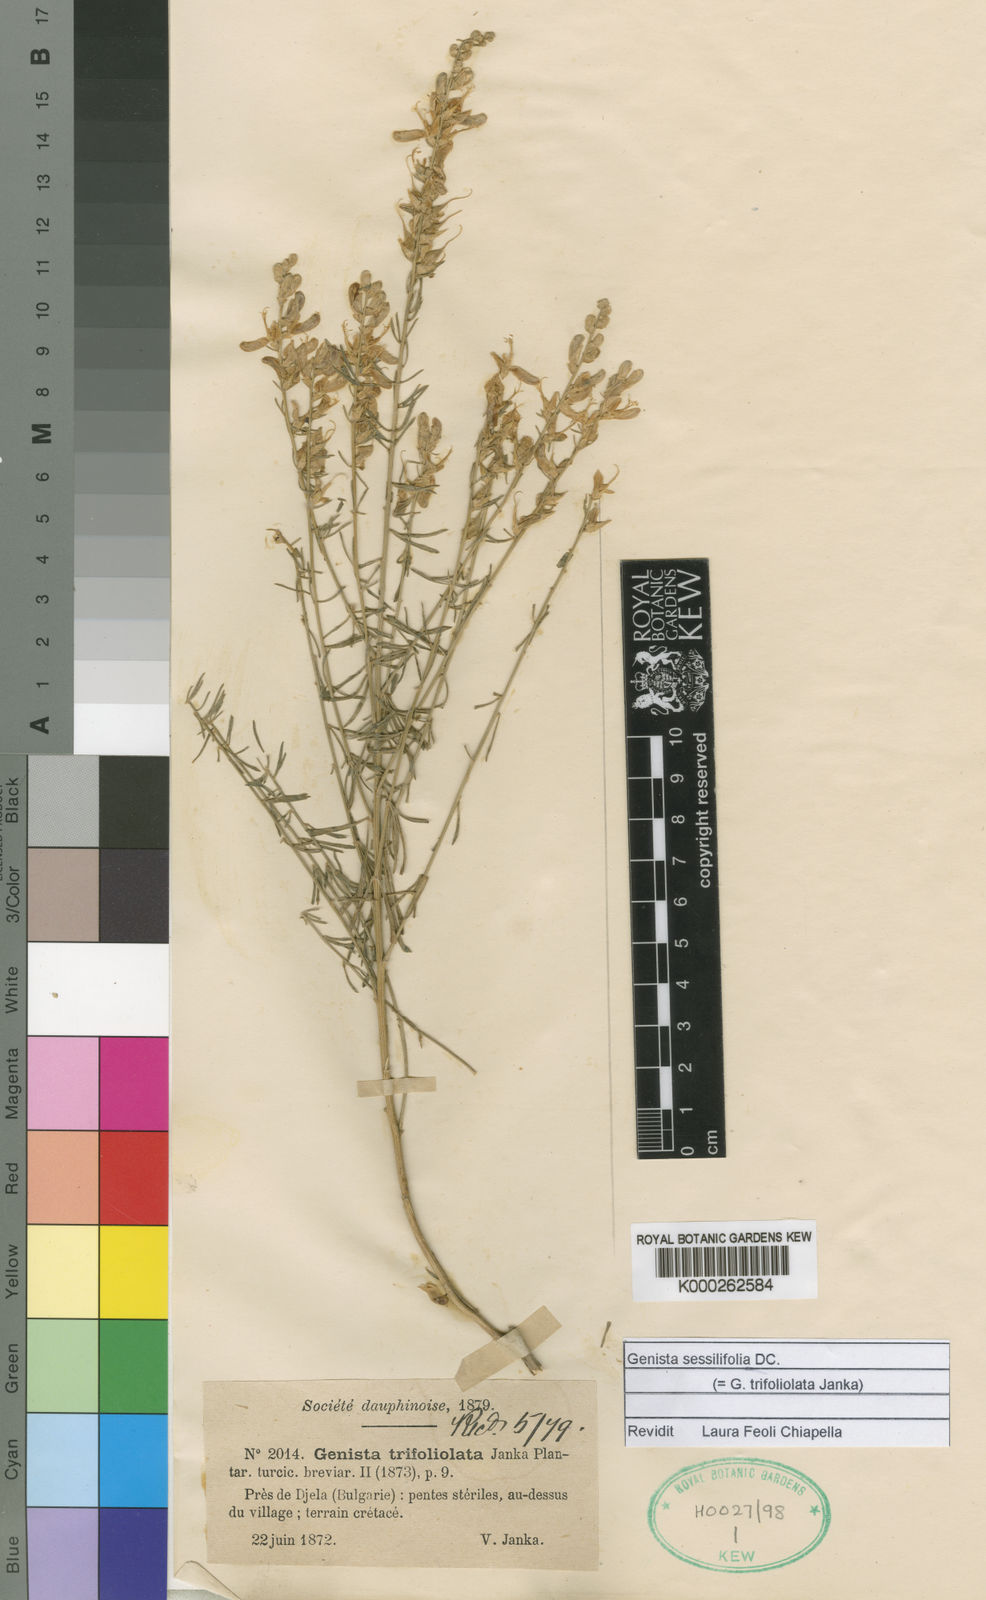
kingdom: Plantae
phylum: Tracheophyta
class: Magnoliopsida
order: Fabales
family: Fabaceae
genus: Genista
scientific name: Genista sessilifolia
